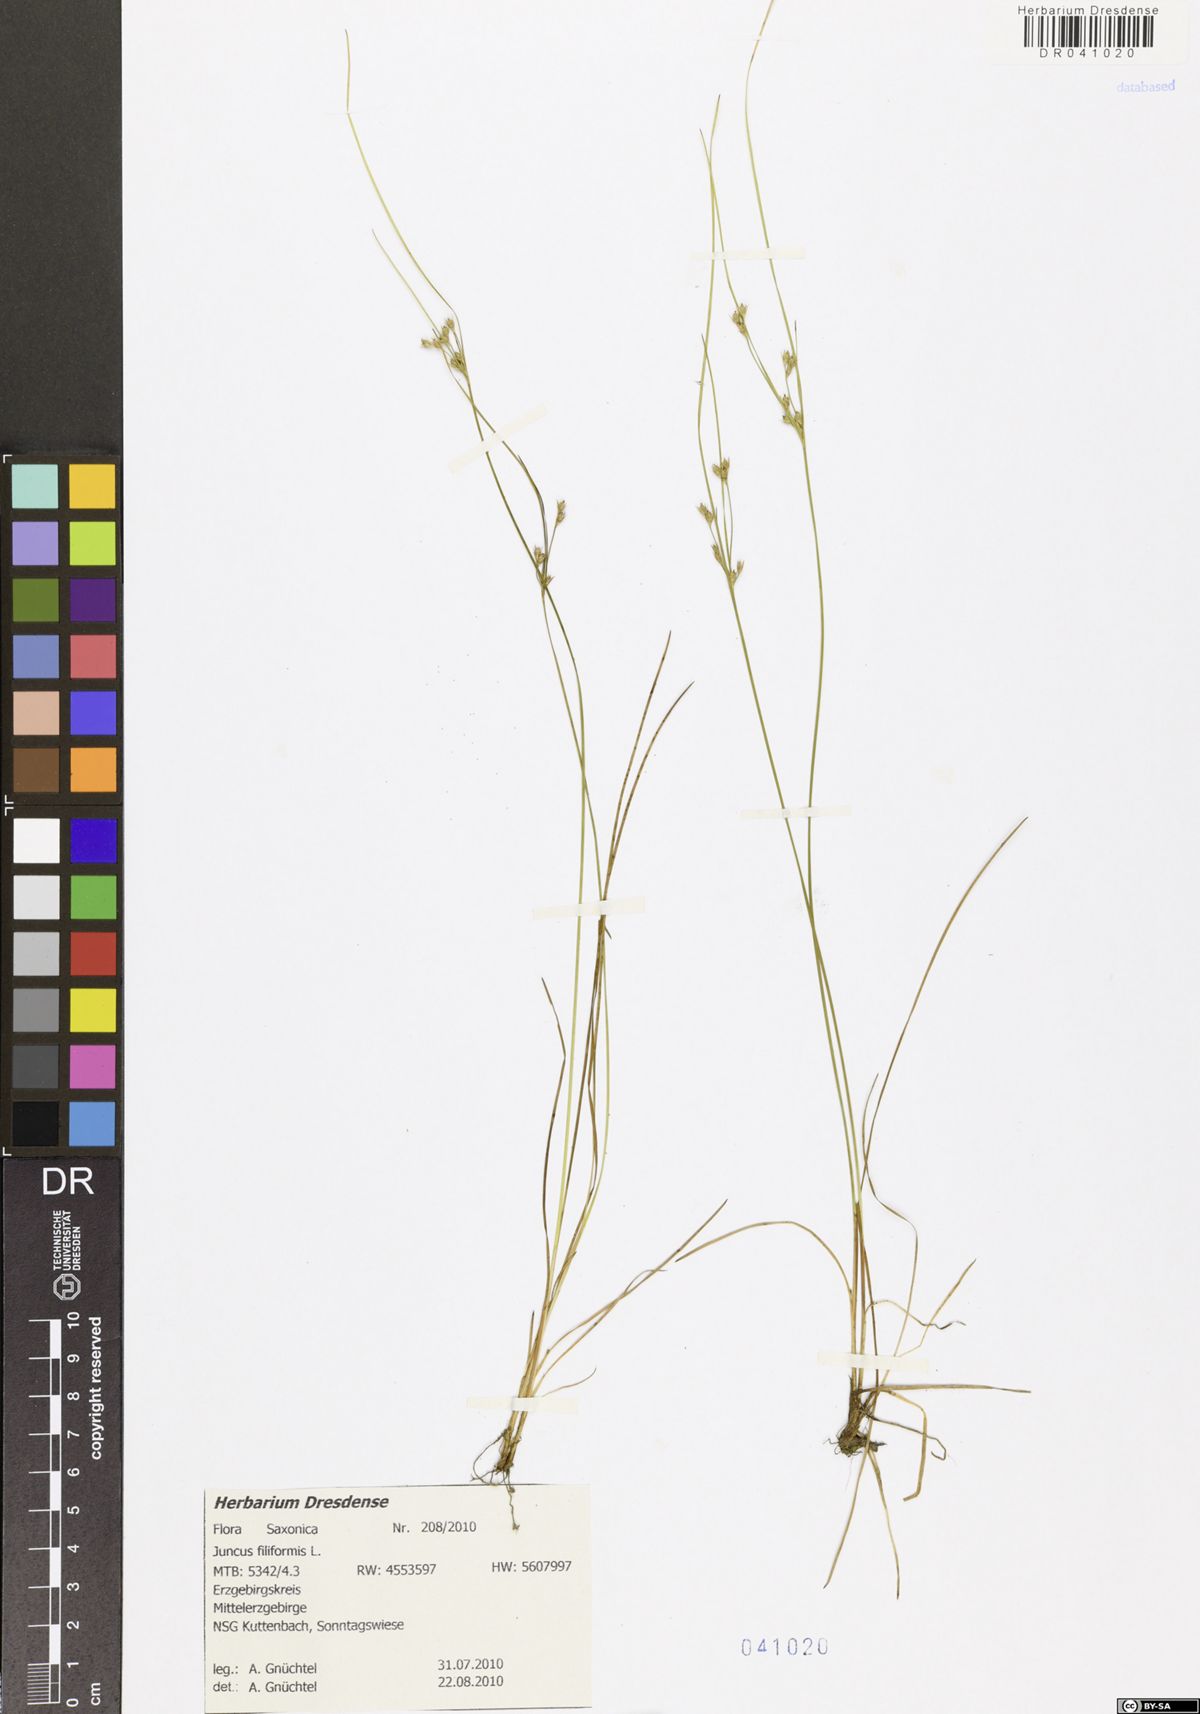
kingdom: Plantae
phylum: Tracheophyta
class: Liliopsida
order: Poales
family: Juncaceae
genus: Juncus
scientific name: Juncus inflexus
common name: Hard rush
